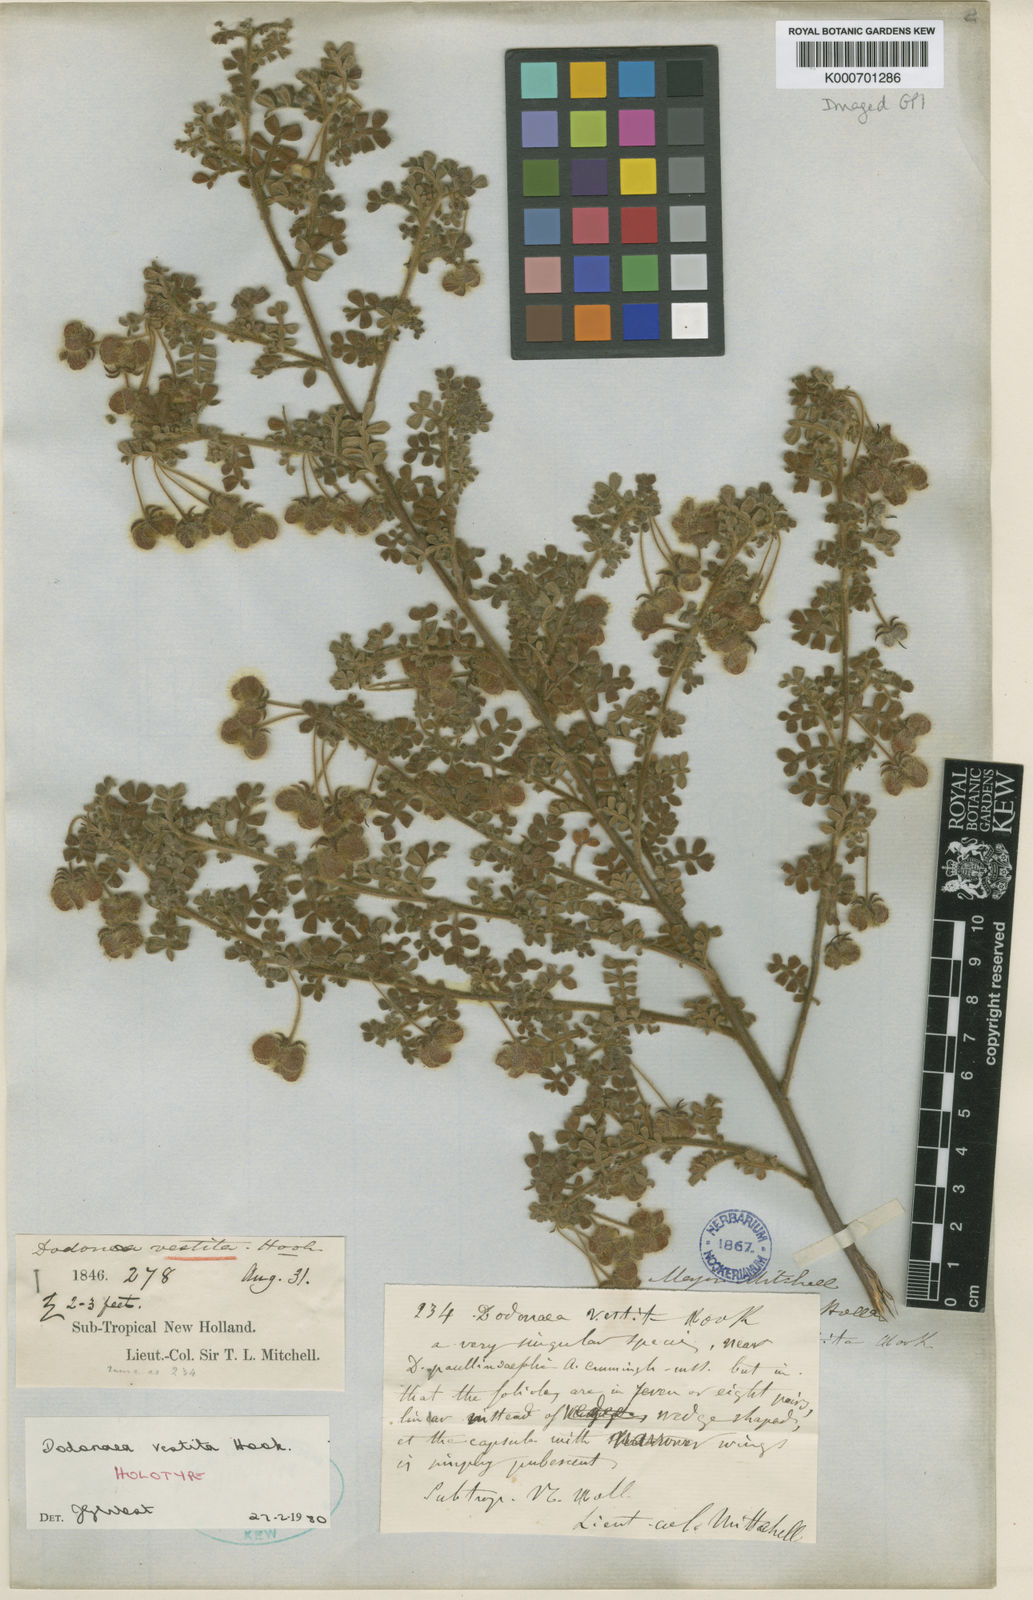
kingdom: Plantae
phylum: Tracheophyta
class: Magnoliopsida
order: Sapindales
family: Sapindaceae
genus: Dodonaea
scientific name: Dodonaea vestita
